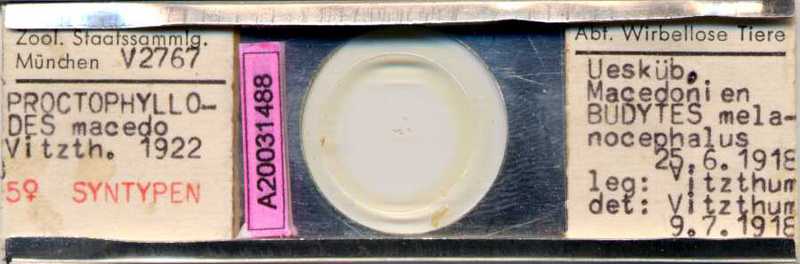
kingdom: Animalia
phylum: Arthropoda
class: Arachnida
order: Sarcoptiformes
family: Proctophyllodidae
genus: Proctophyllodes
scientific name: Proctophyllodes macedo
